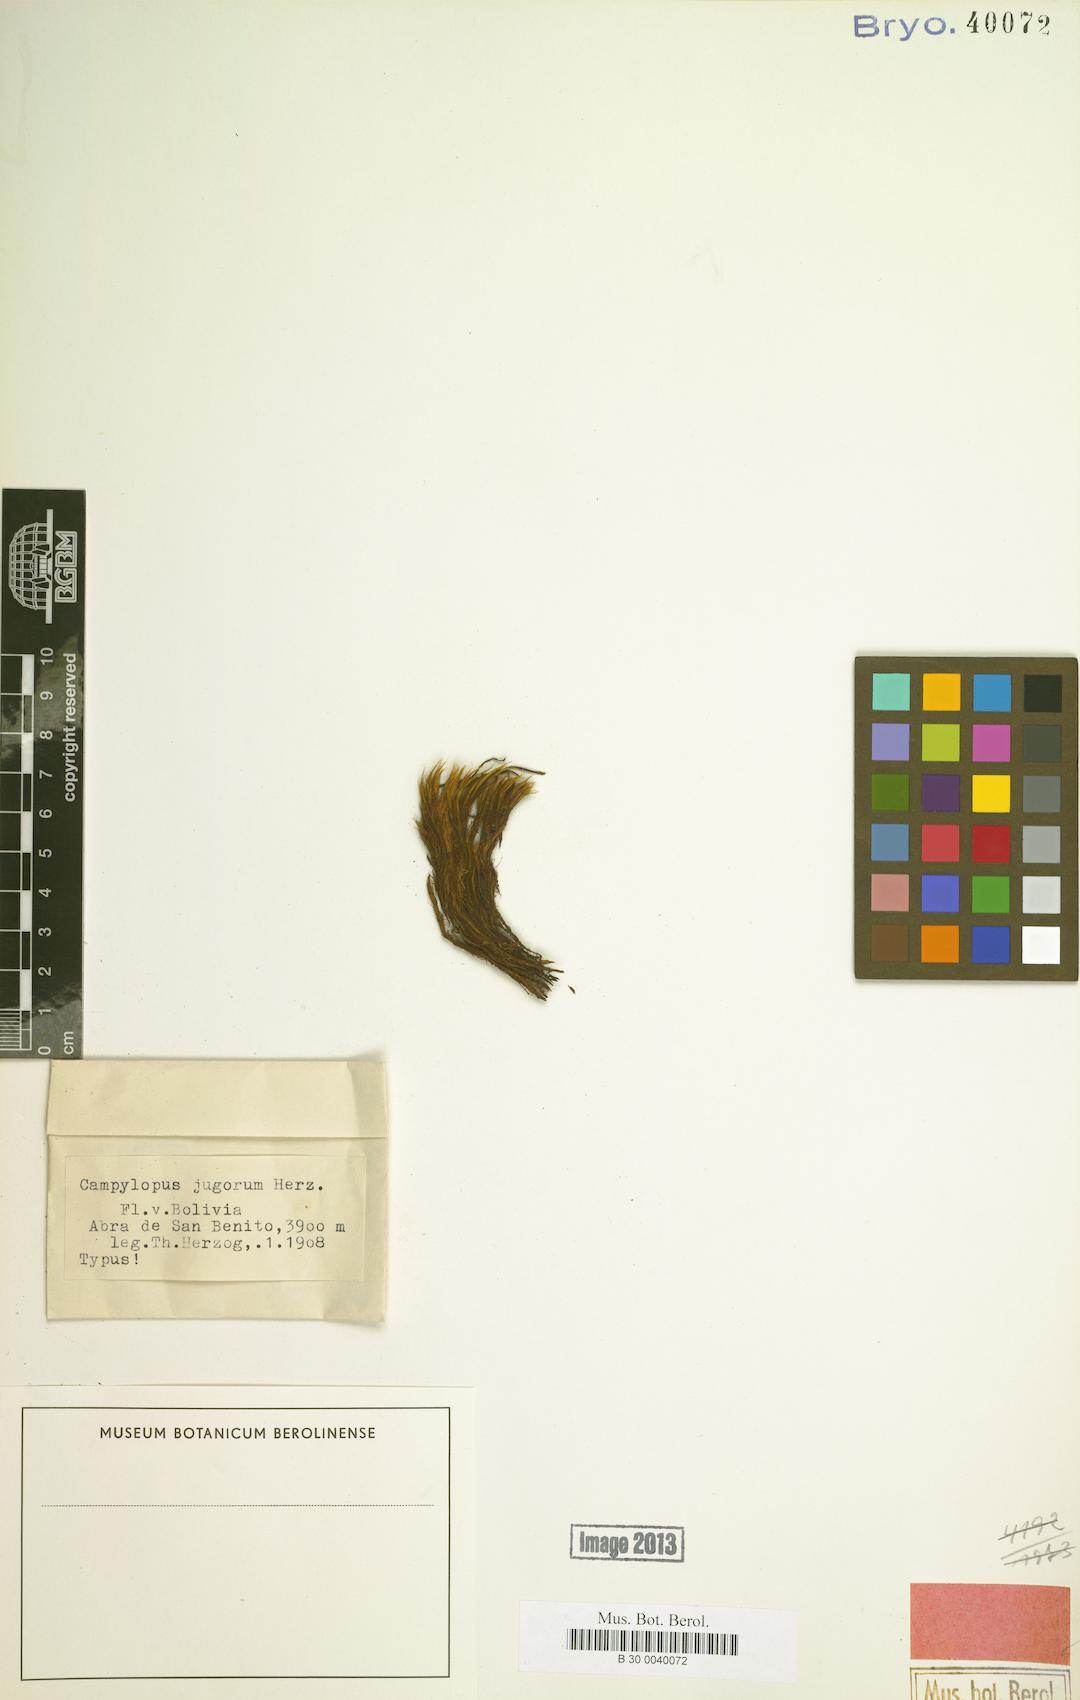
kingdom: Plantae
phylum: Bryophyta
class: Bryopsida
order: Dicranales
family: Leucobryaceae
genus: Campylopus
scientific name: Campylopus jugorum
